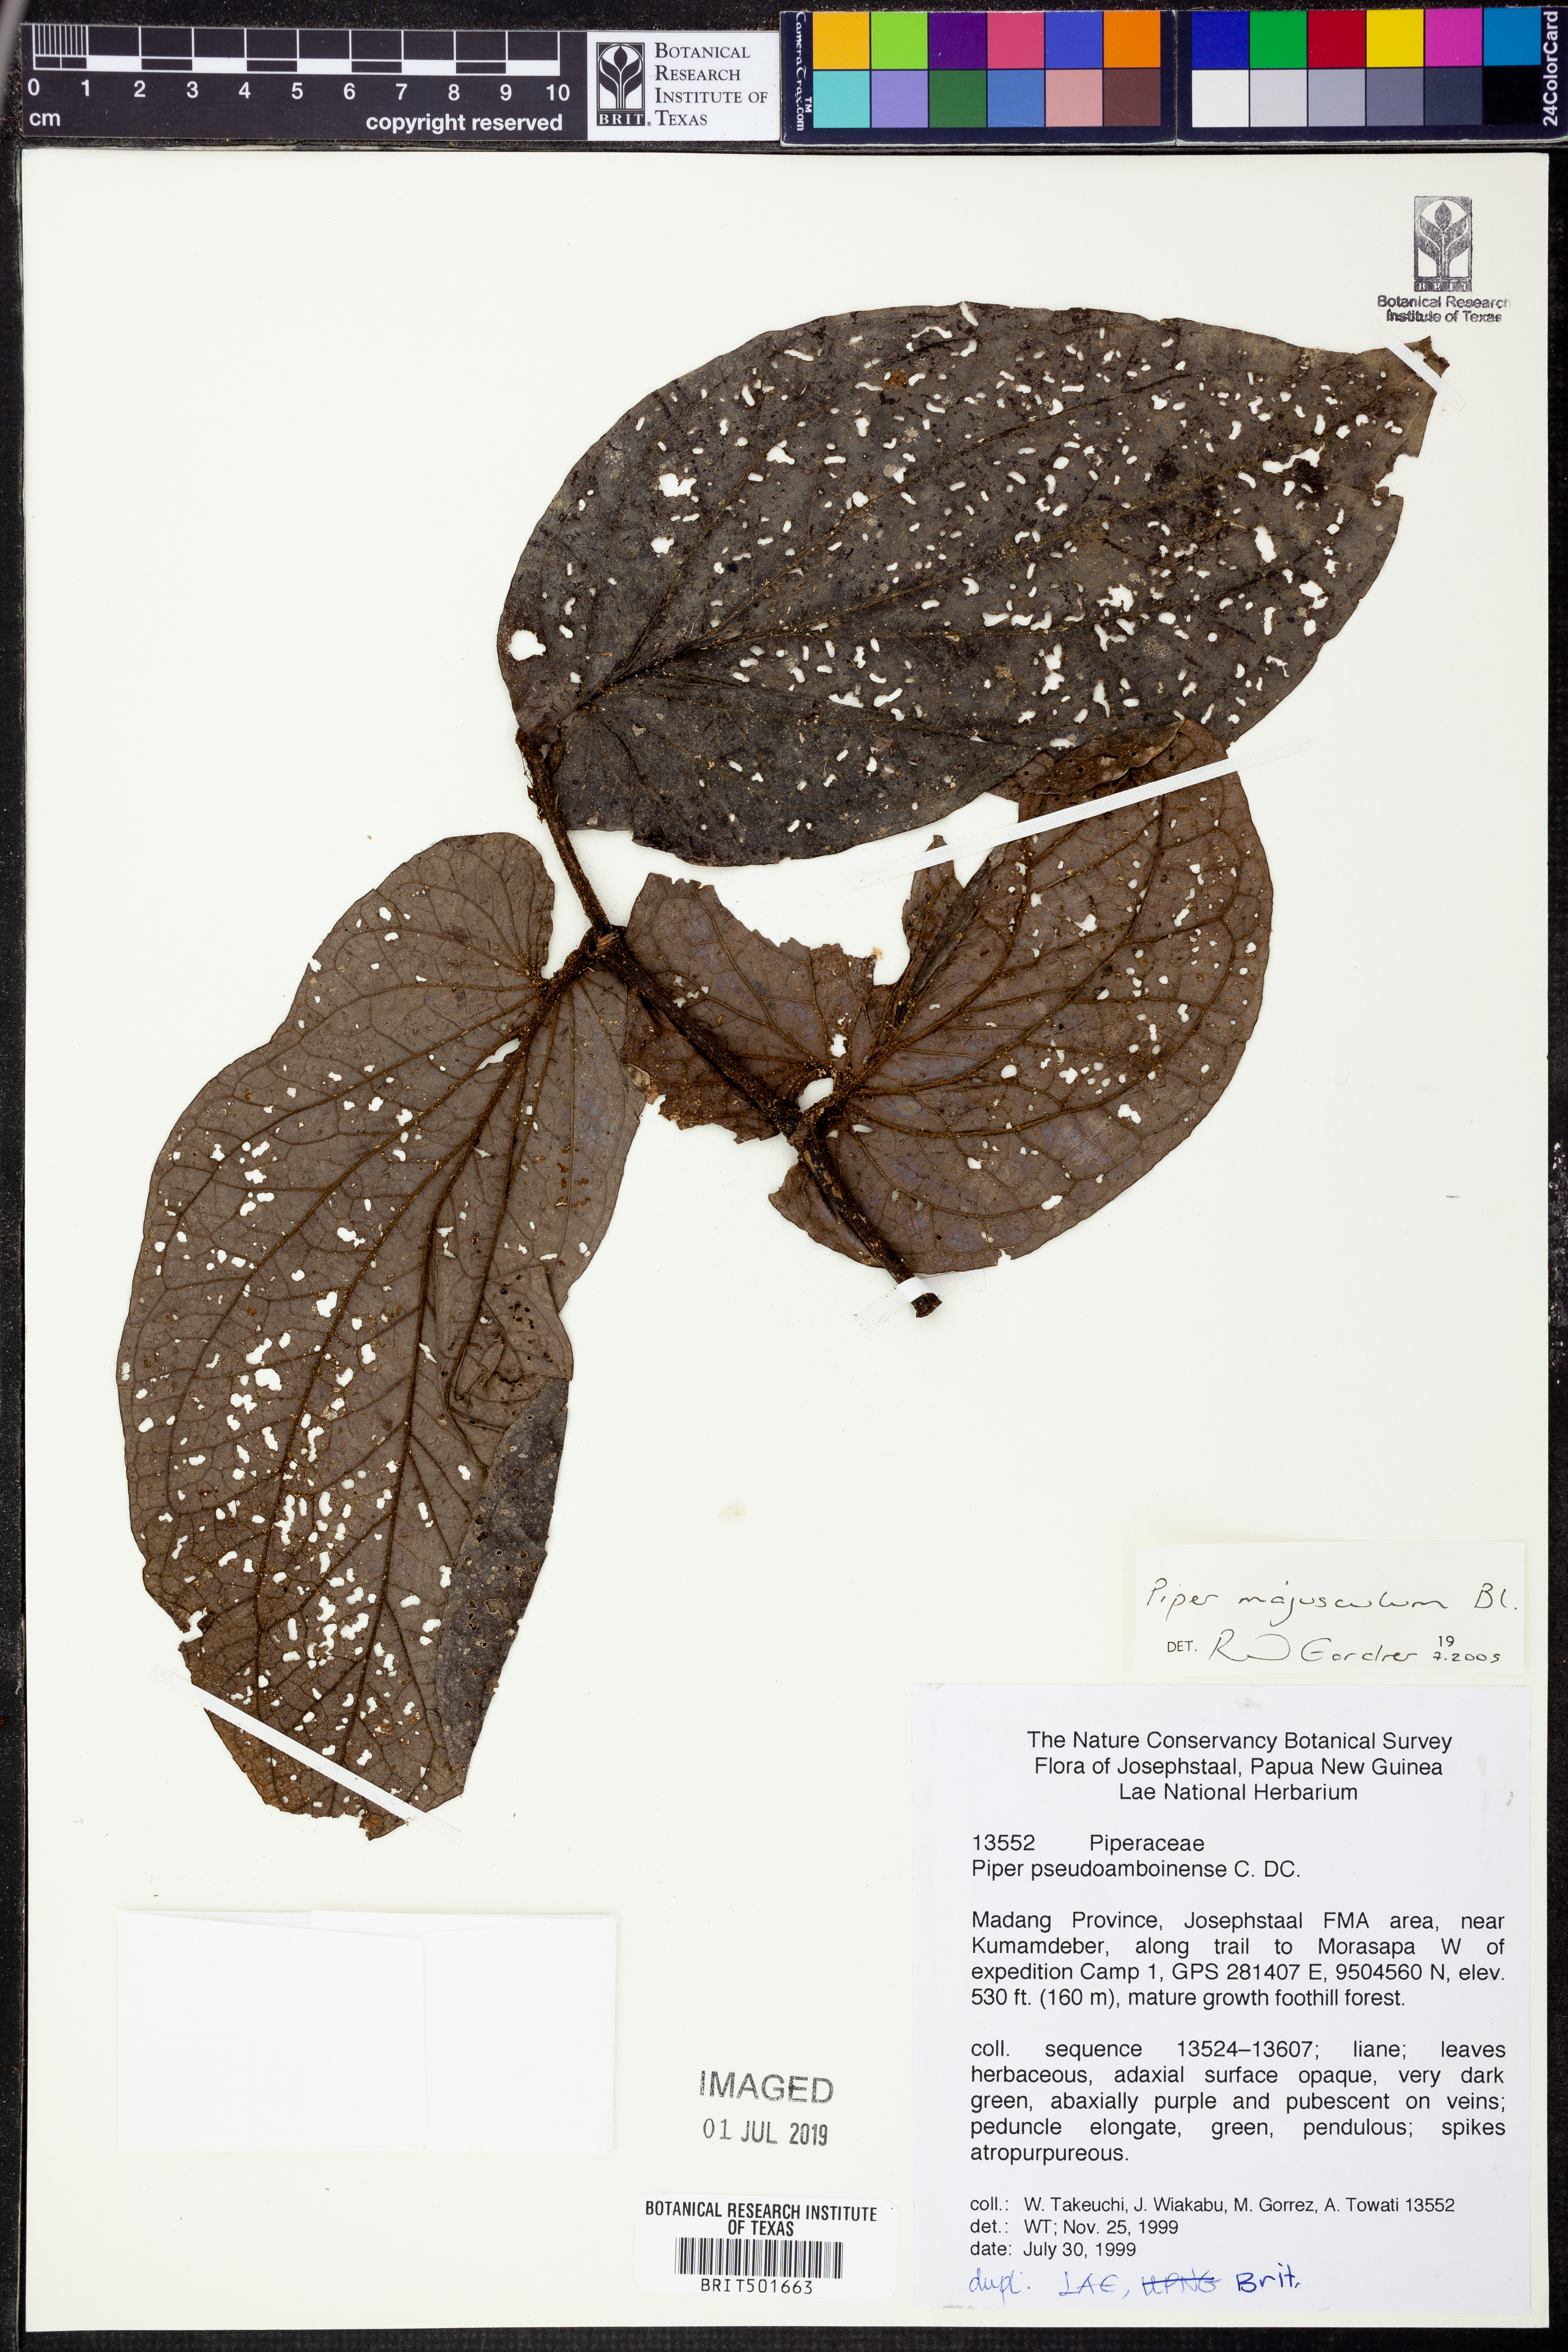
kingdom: Plantae
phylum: Tracheophyta
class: Magnoliopsida
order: Piperales
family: Piperaceae
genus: Piper
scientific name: Piper majusculum
